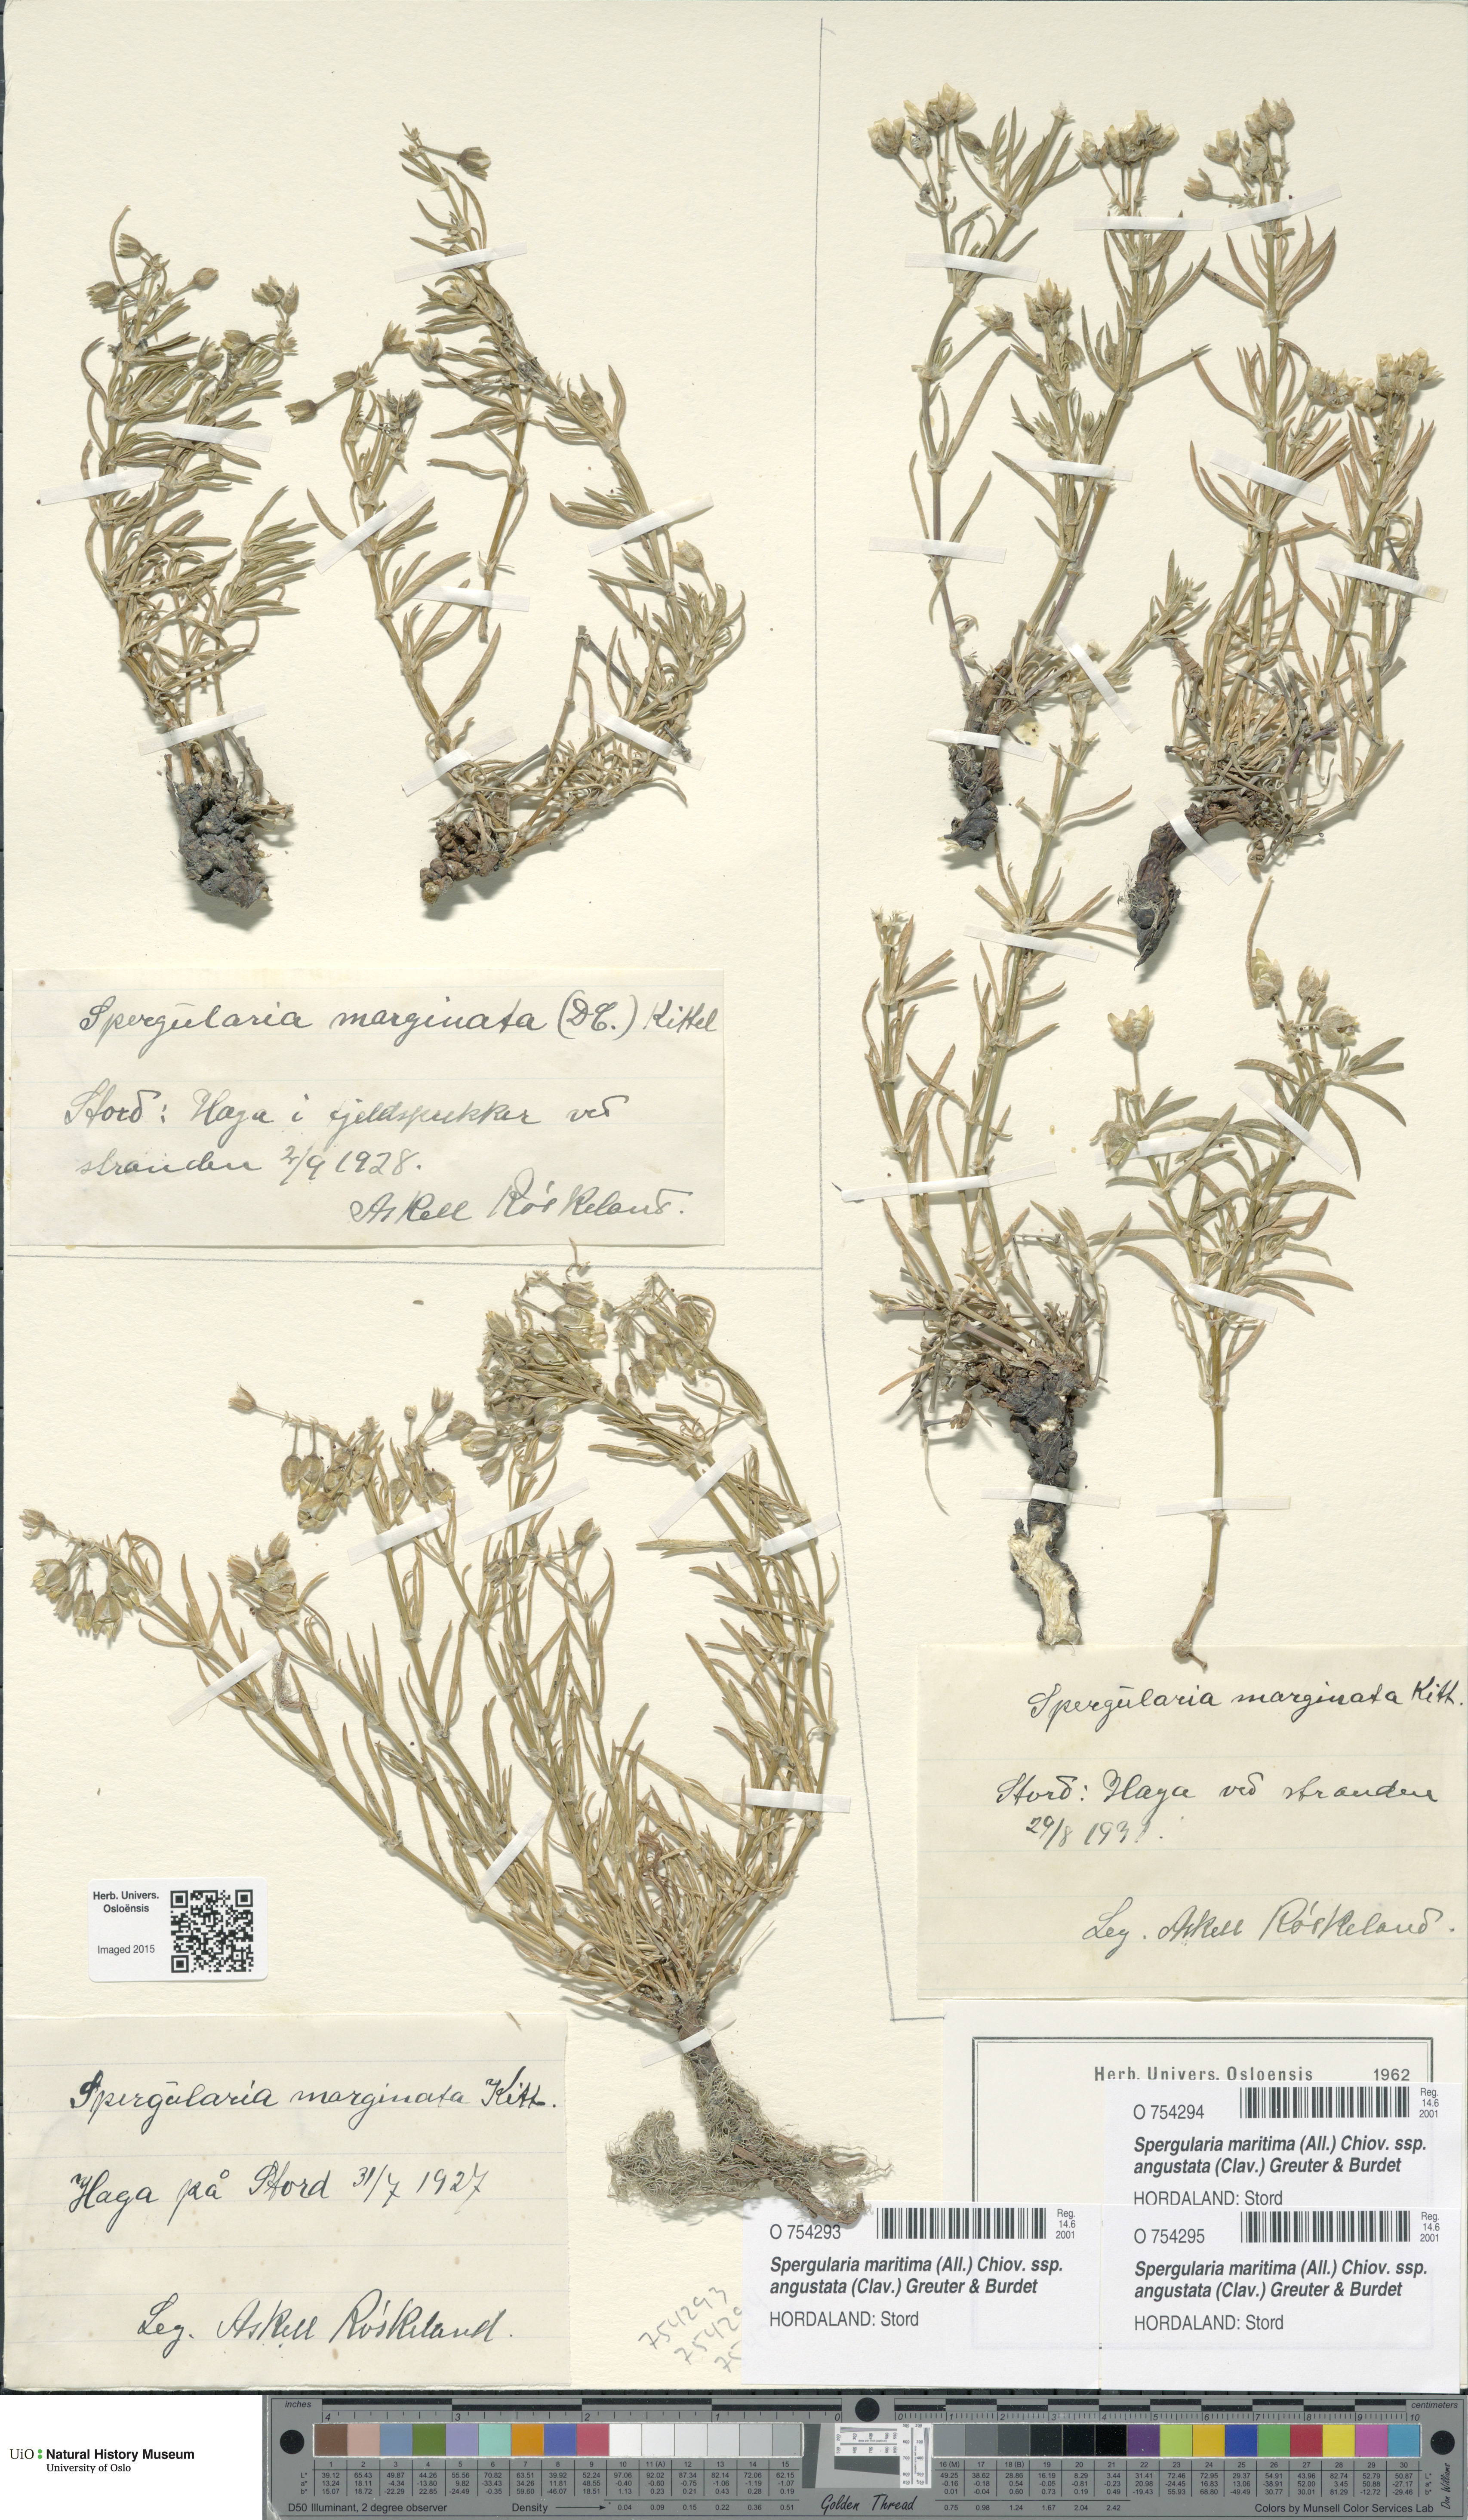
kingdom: Plantae
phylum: Tracheophyta
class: Magnoliopsida
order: Caryophyllales
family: Caryophyllaceae
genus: Spergularia
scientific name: Spergularia media
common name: Greater sea-spurrey
